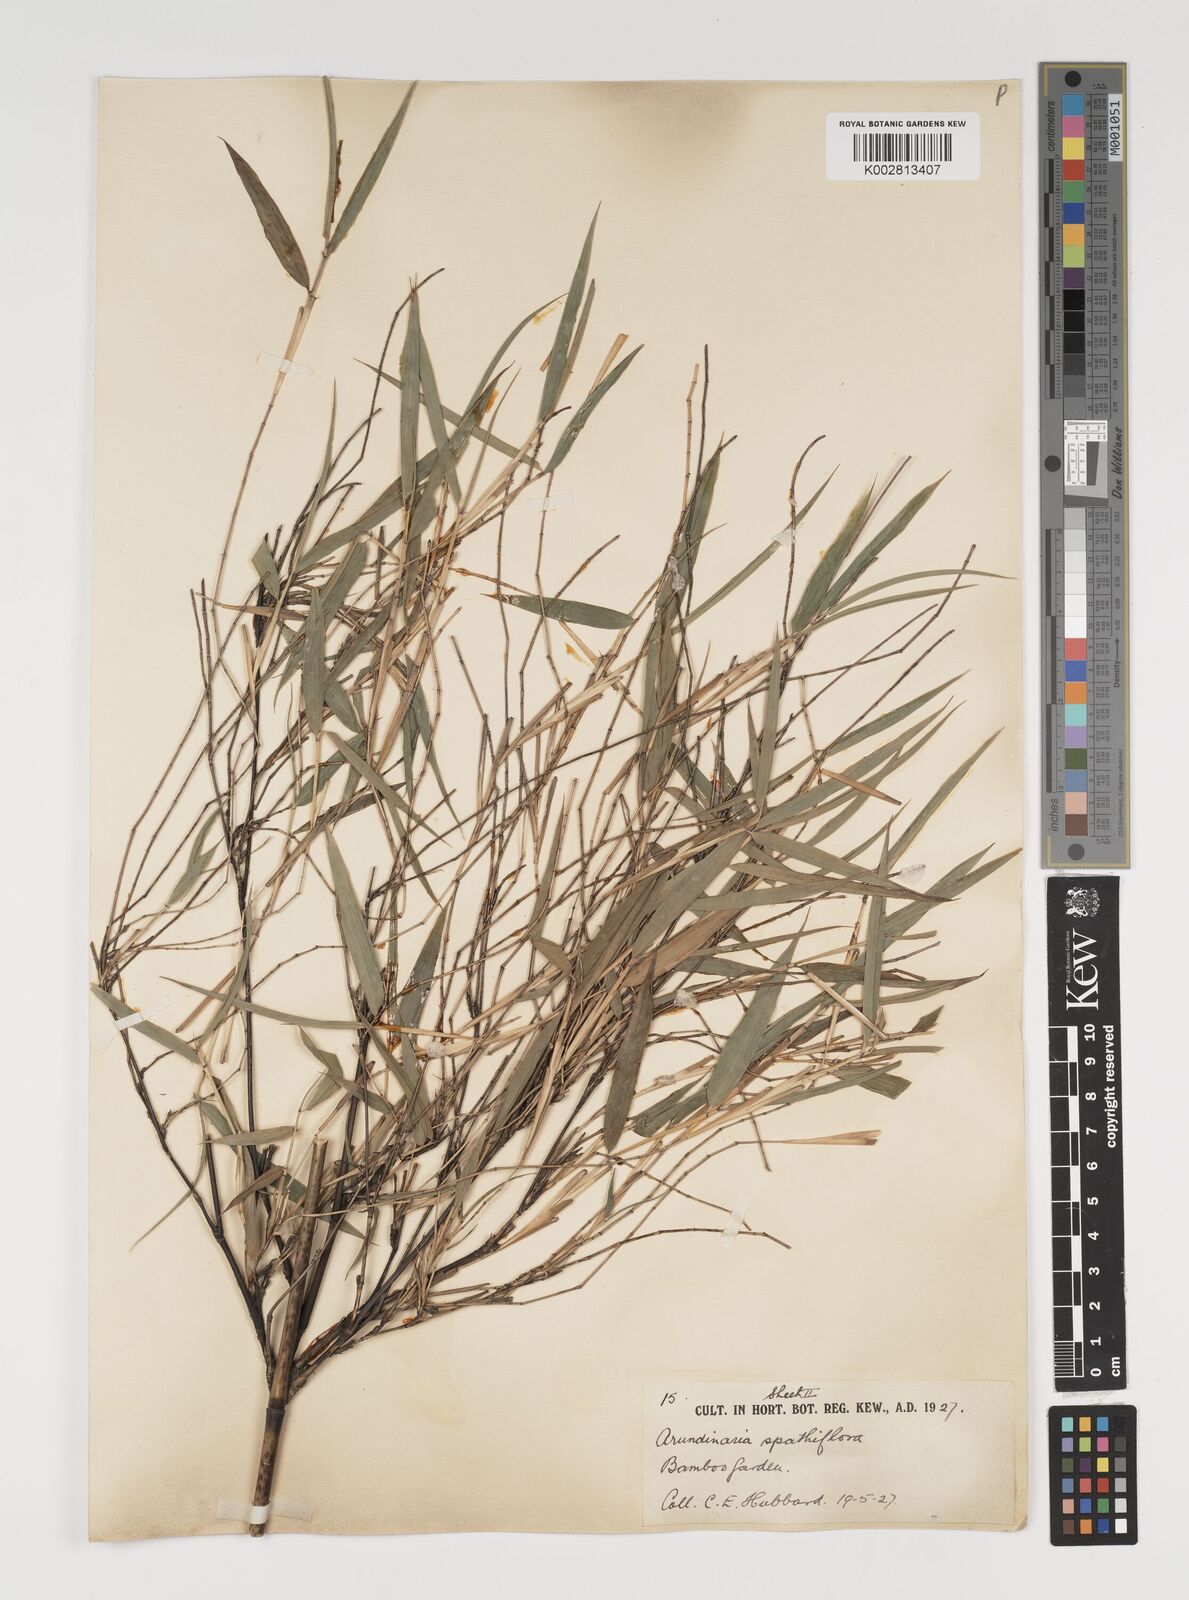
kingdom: Plantae
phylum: Tracheophyta
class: Liliopsida
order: Poales
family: Poaceae
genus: Thamnocalamus
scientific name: Thamnocalamus spathiflorus
